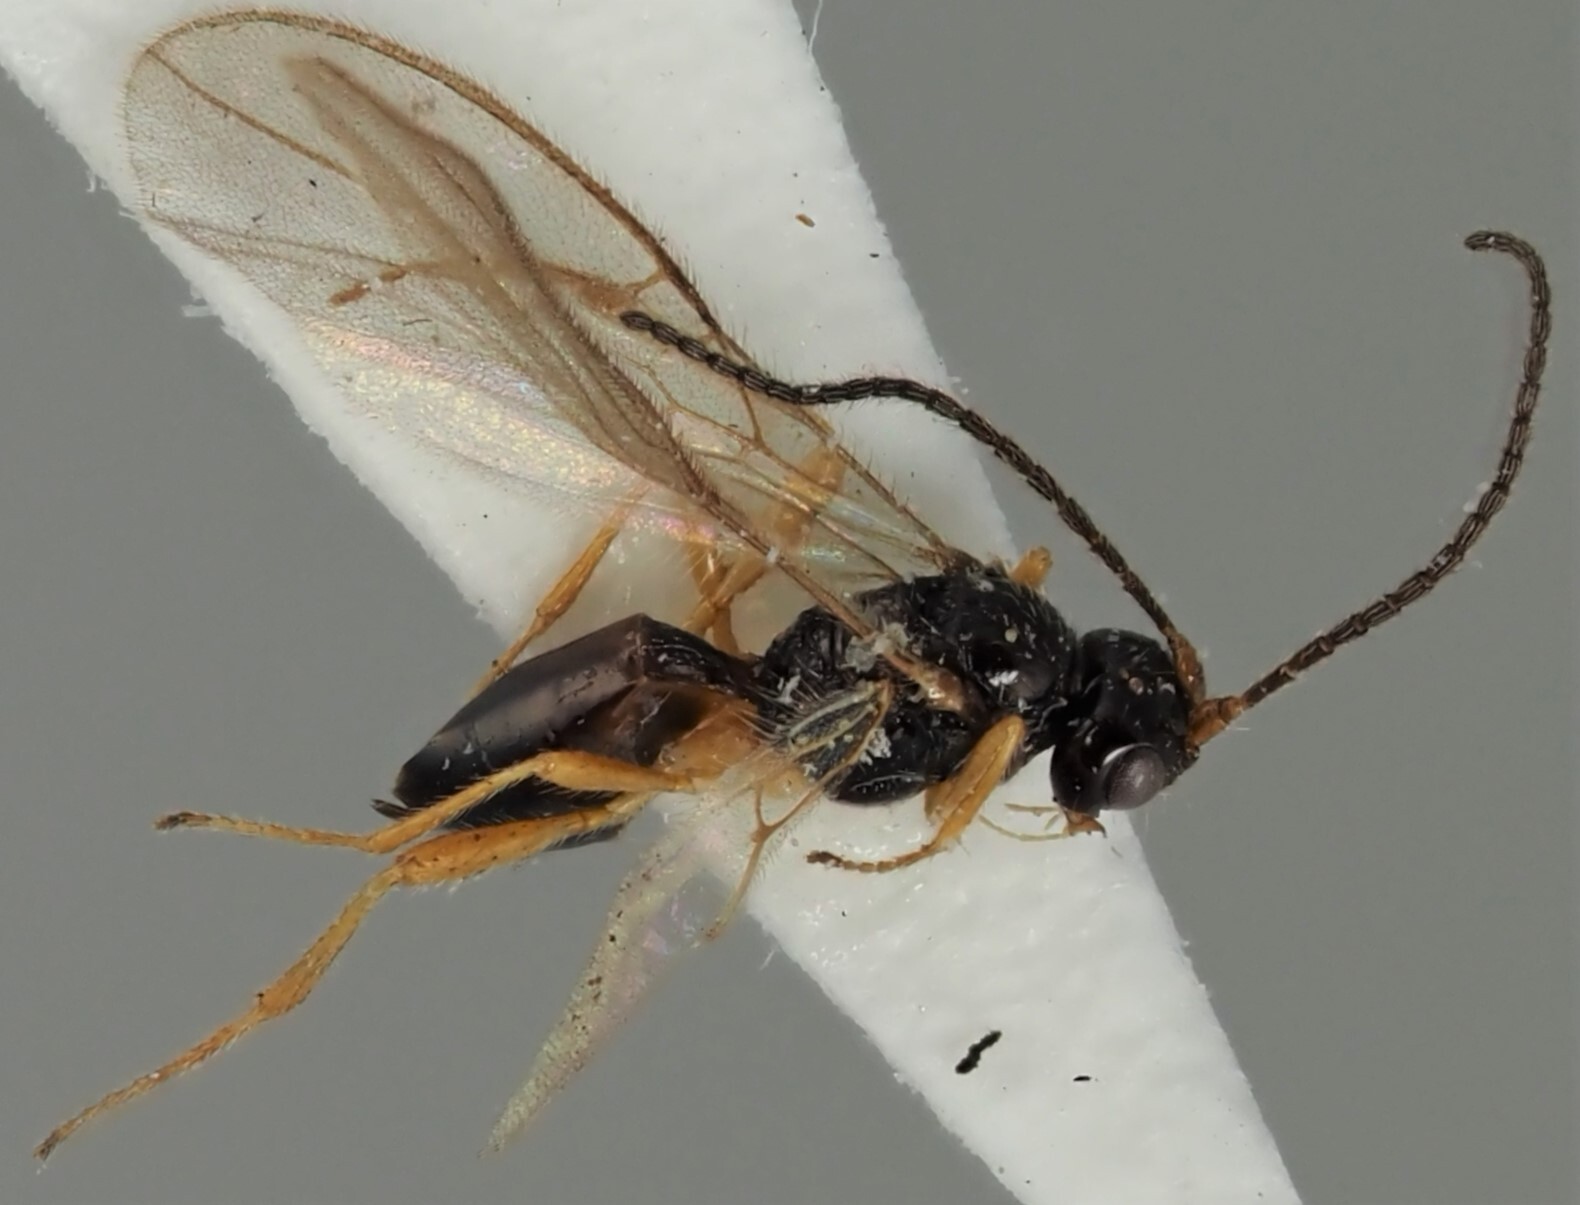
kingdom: Animalia
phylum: Arthropoda
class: Insecta
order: Hymenoptera
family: Braconidae
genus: Dinotrema
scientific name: Dinotrema costulatum
